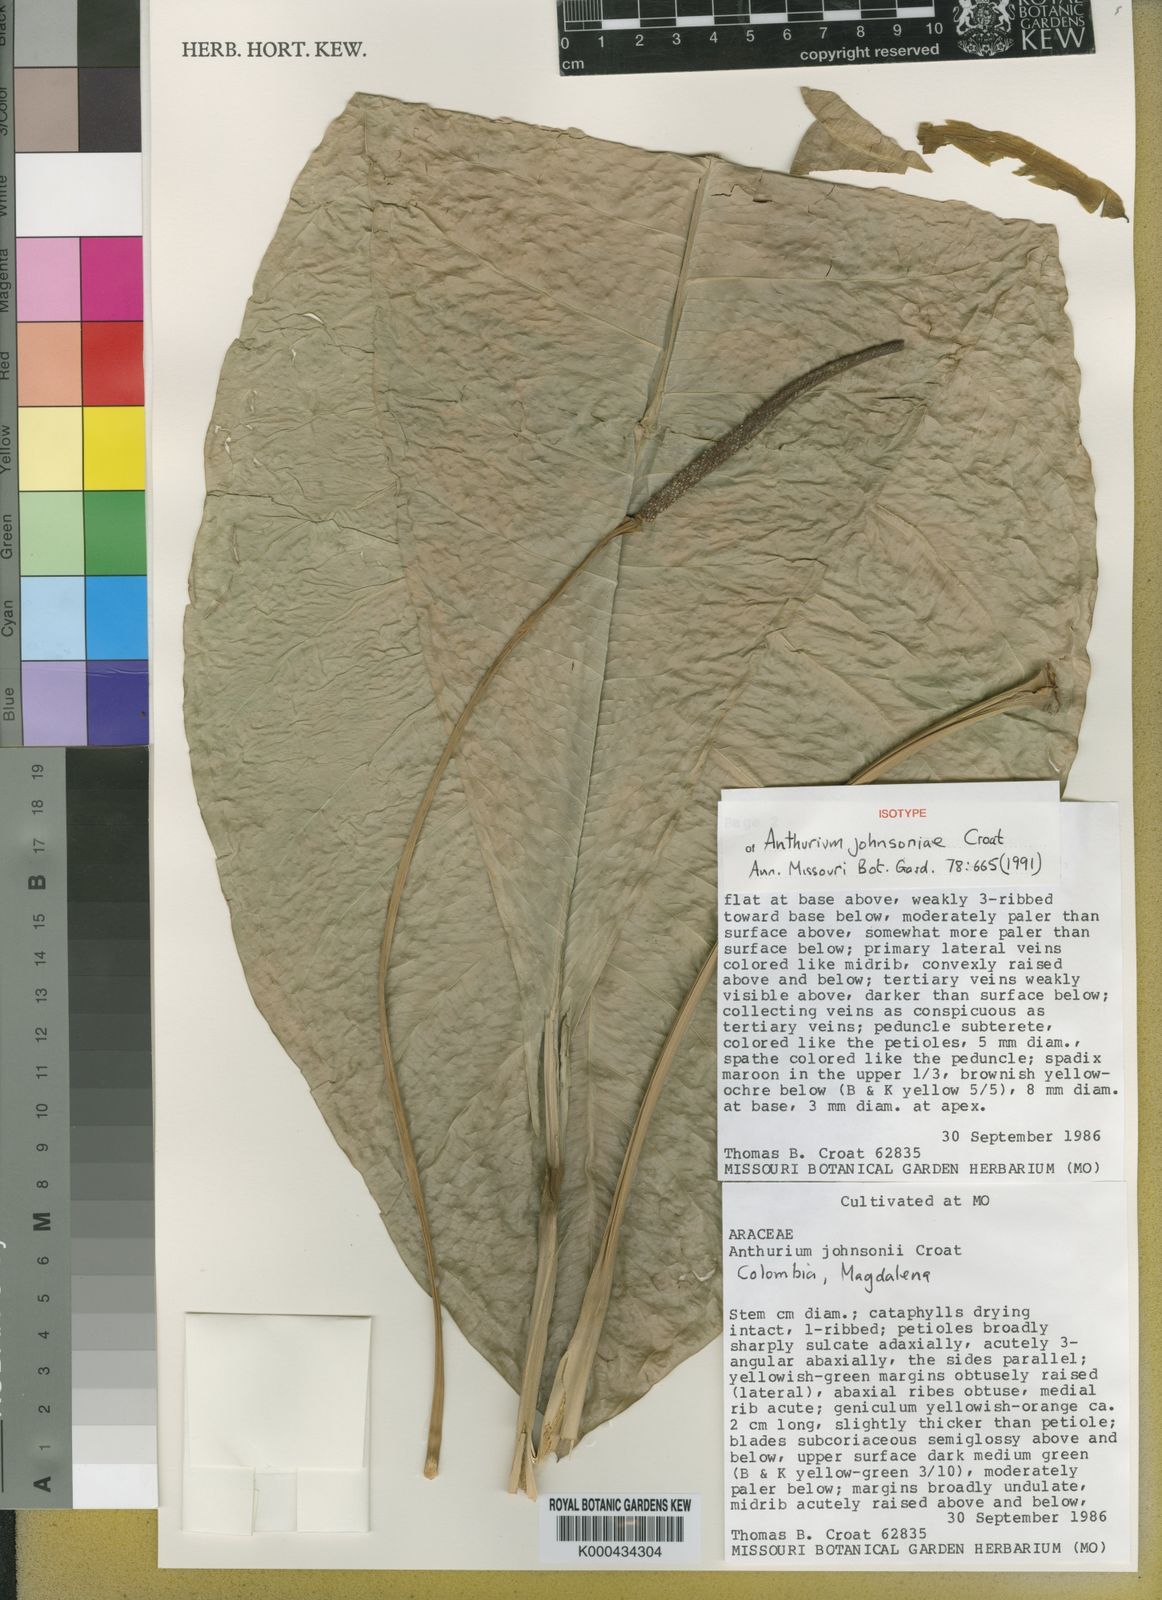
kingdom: Plantae
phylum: Tracheophyta
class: Liliopsida
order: Alismatales
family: Araceae
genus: Anthurium
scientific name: Anthurium johnsoniae
